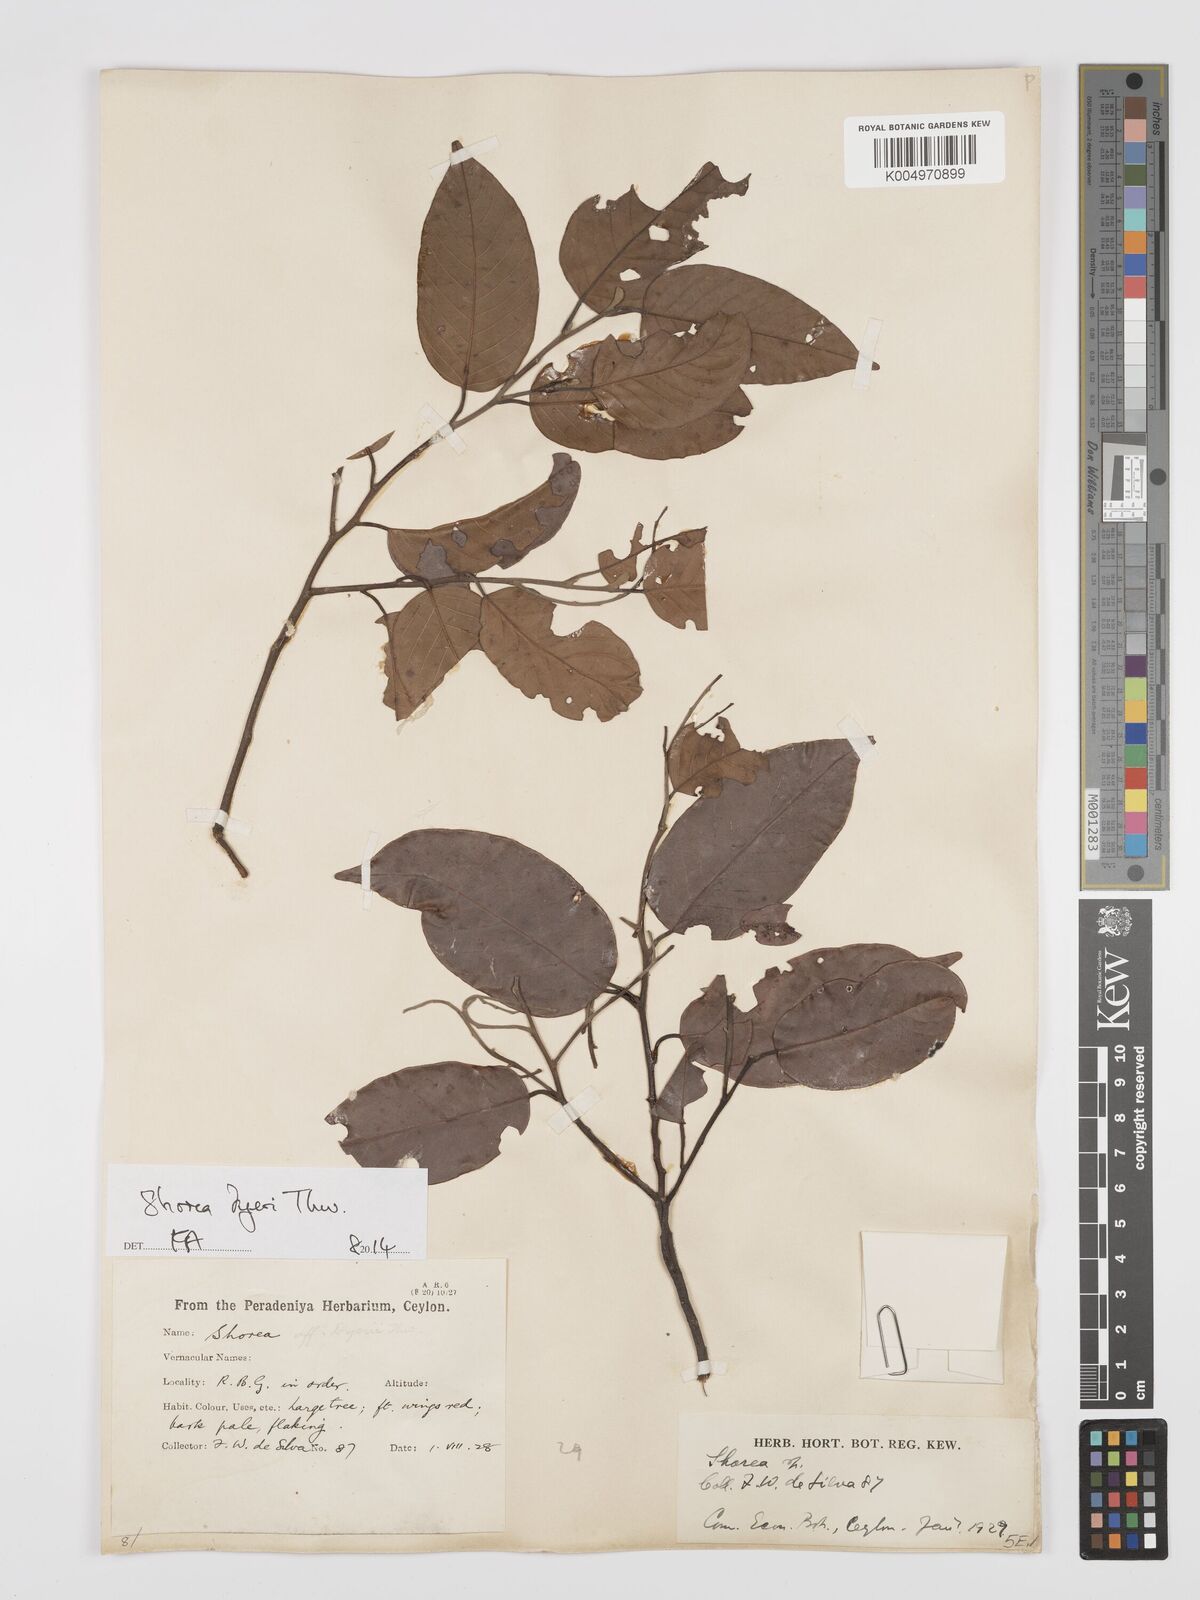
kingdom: Plantae
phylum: Tracheophyta
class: Magnoliopsida
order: Malvales
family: Dipterocarpaceae
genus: Shorea
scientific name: Shorea dyeri
